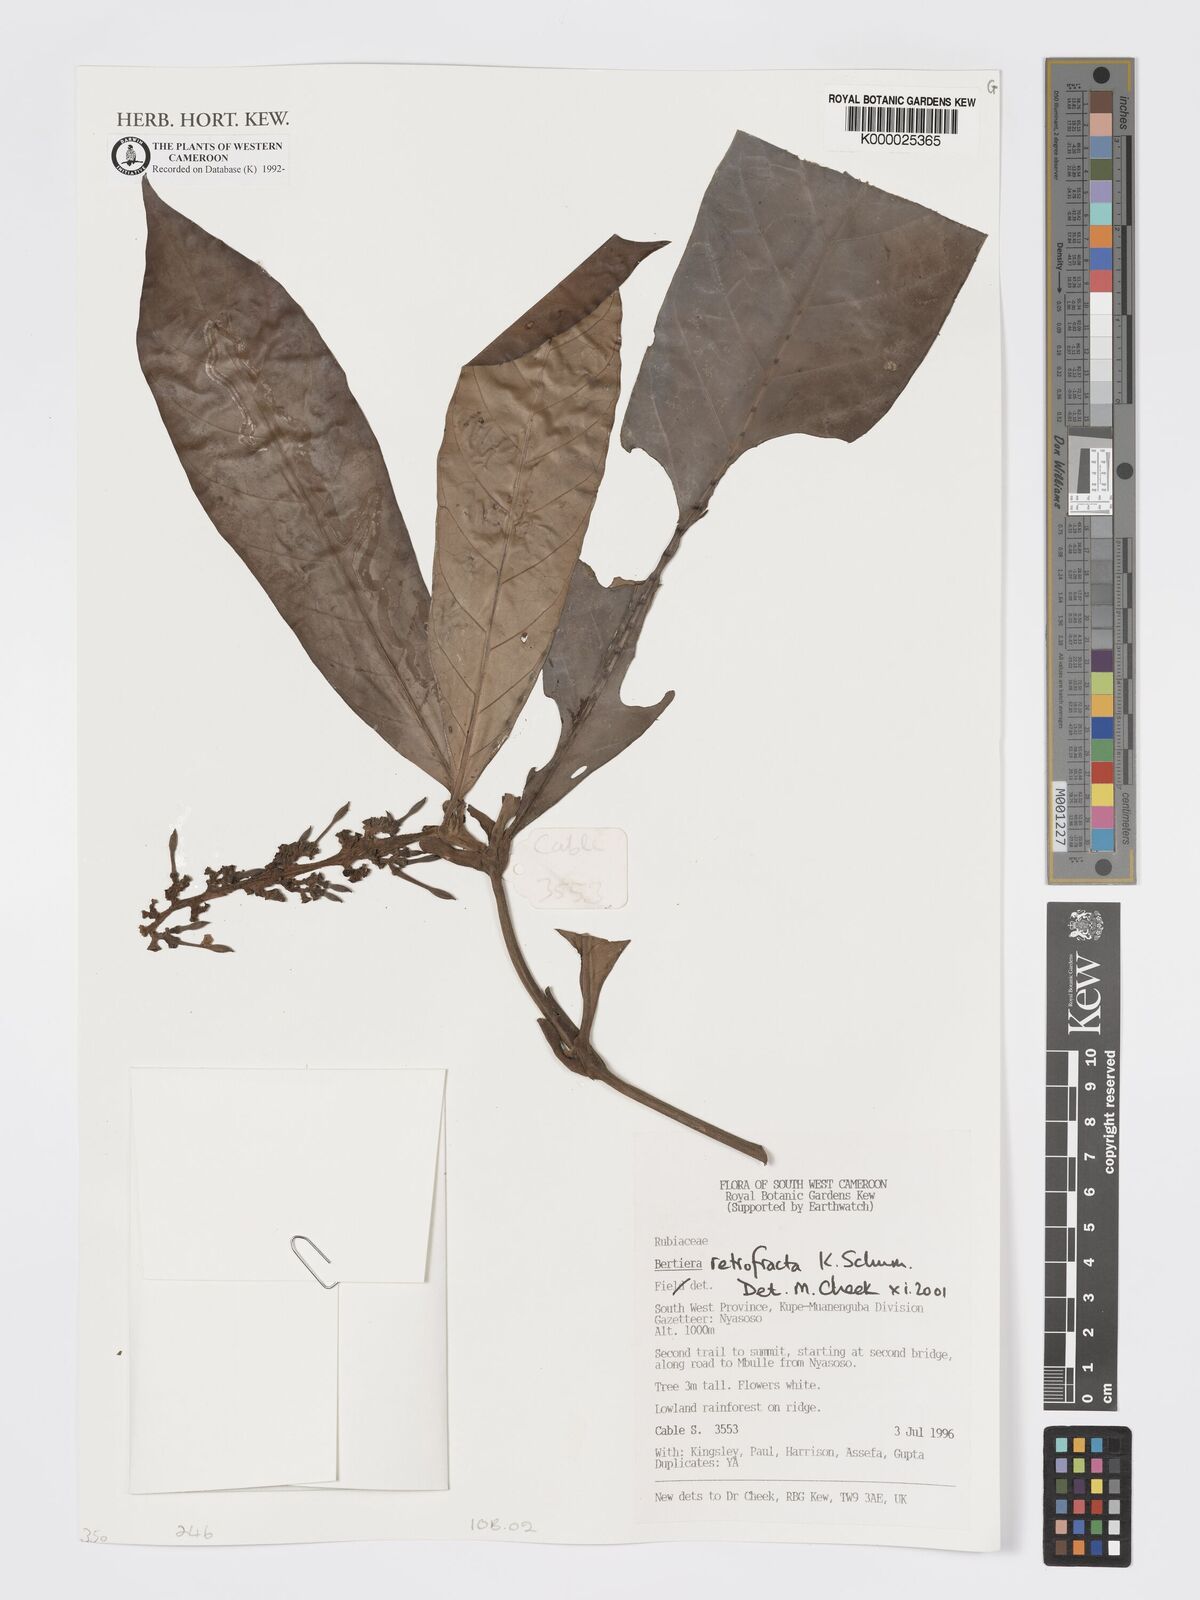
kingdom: Plantae
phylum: Tracheophyta
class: Magnoliopsida
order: Gentianales
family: Rubiaceae
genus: Bertiera
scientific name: Bertiera retrofracta
